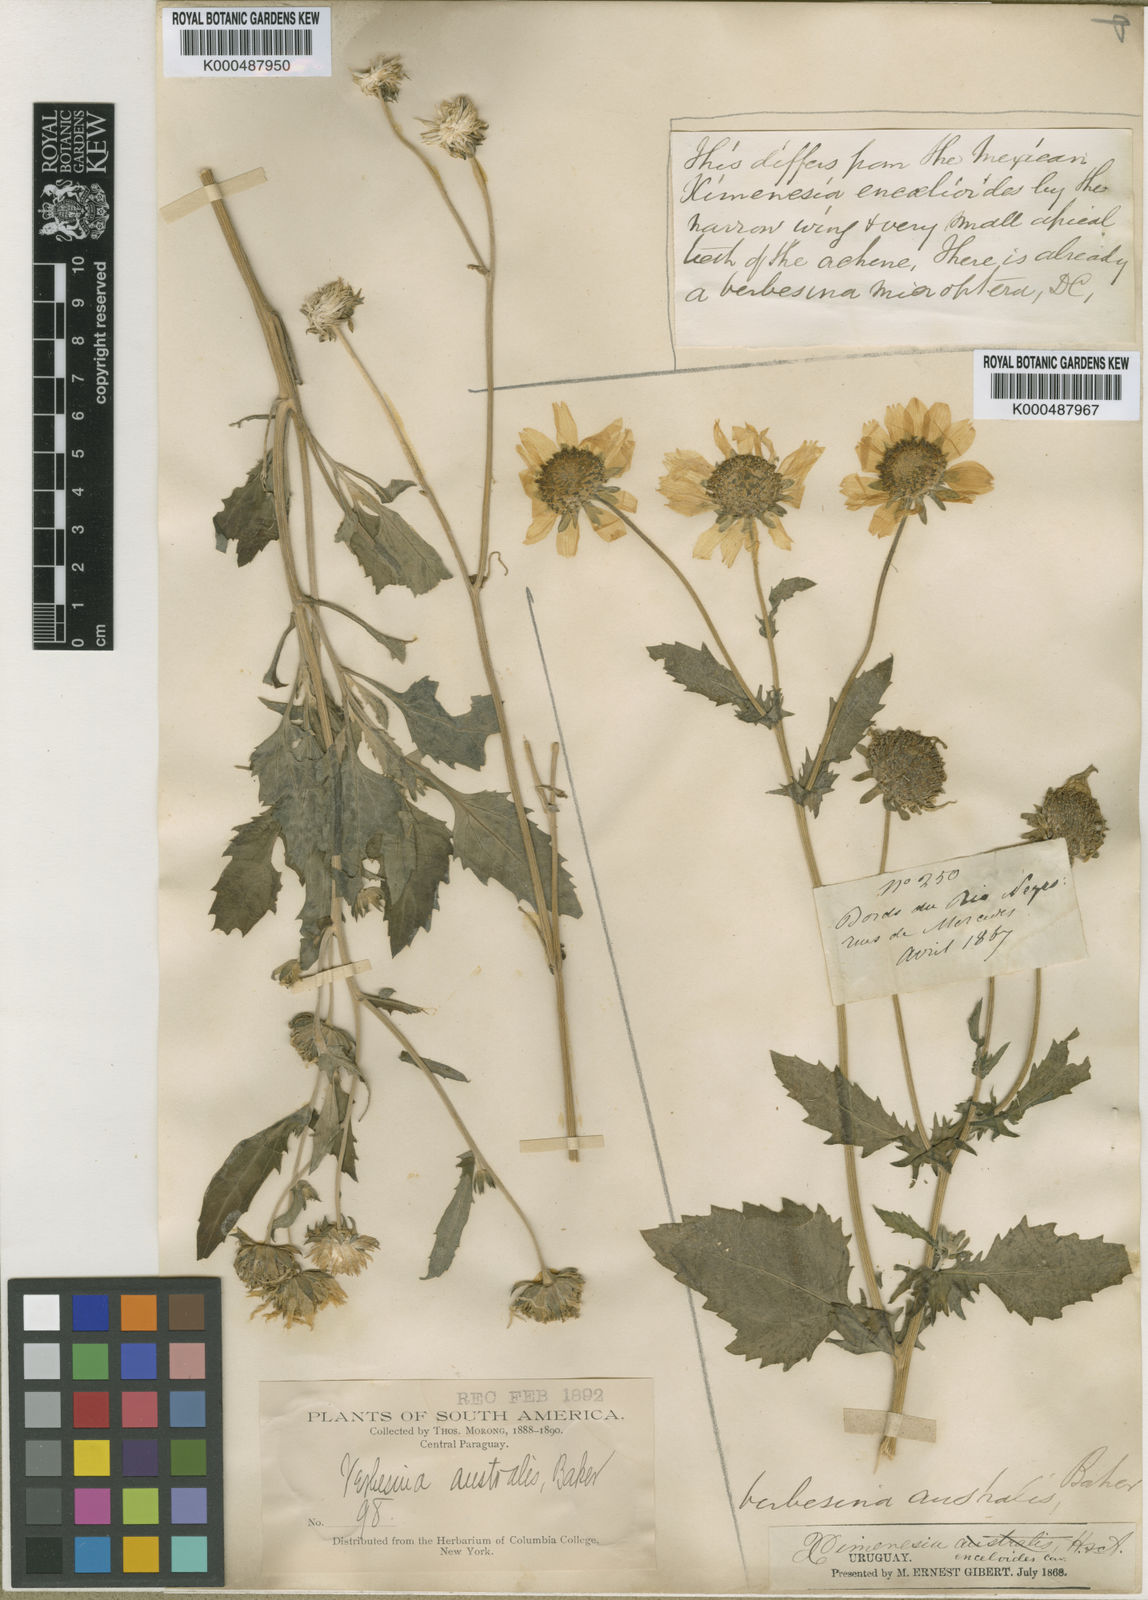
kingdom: Plantae
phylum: Tracheophyta
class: Magnoliopsida
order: Asterales
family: Asteraceae
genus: Verbesina
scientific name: Verbesina encelioides
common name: Golden crownbeard
